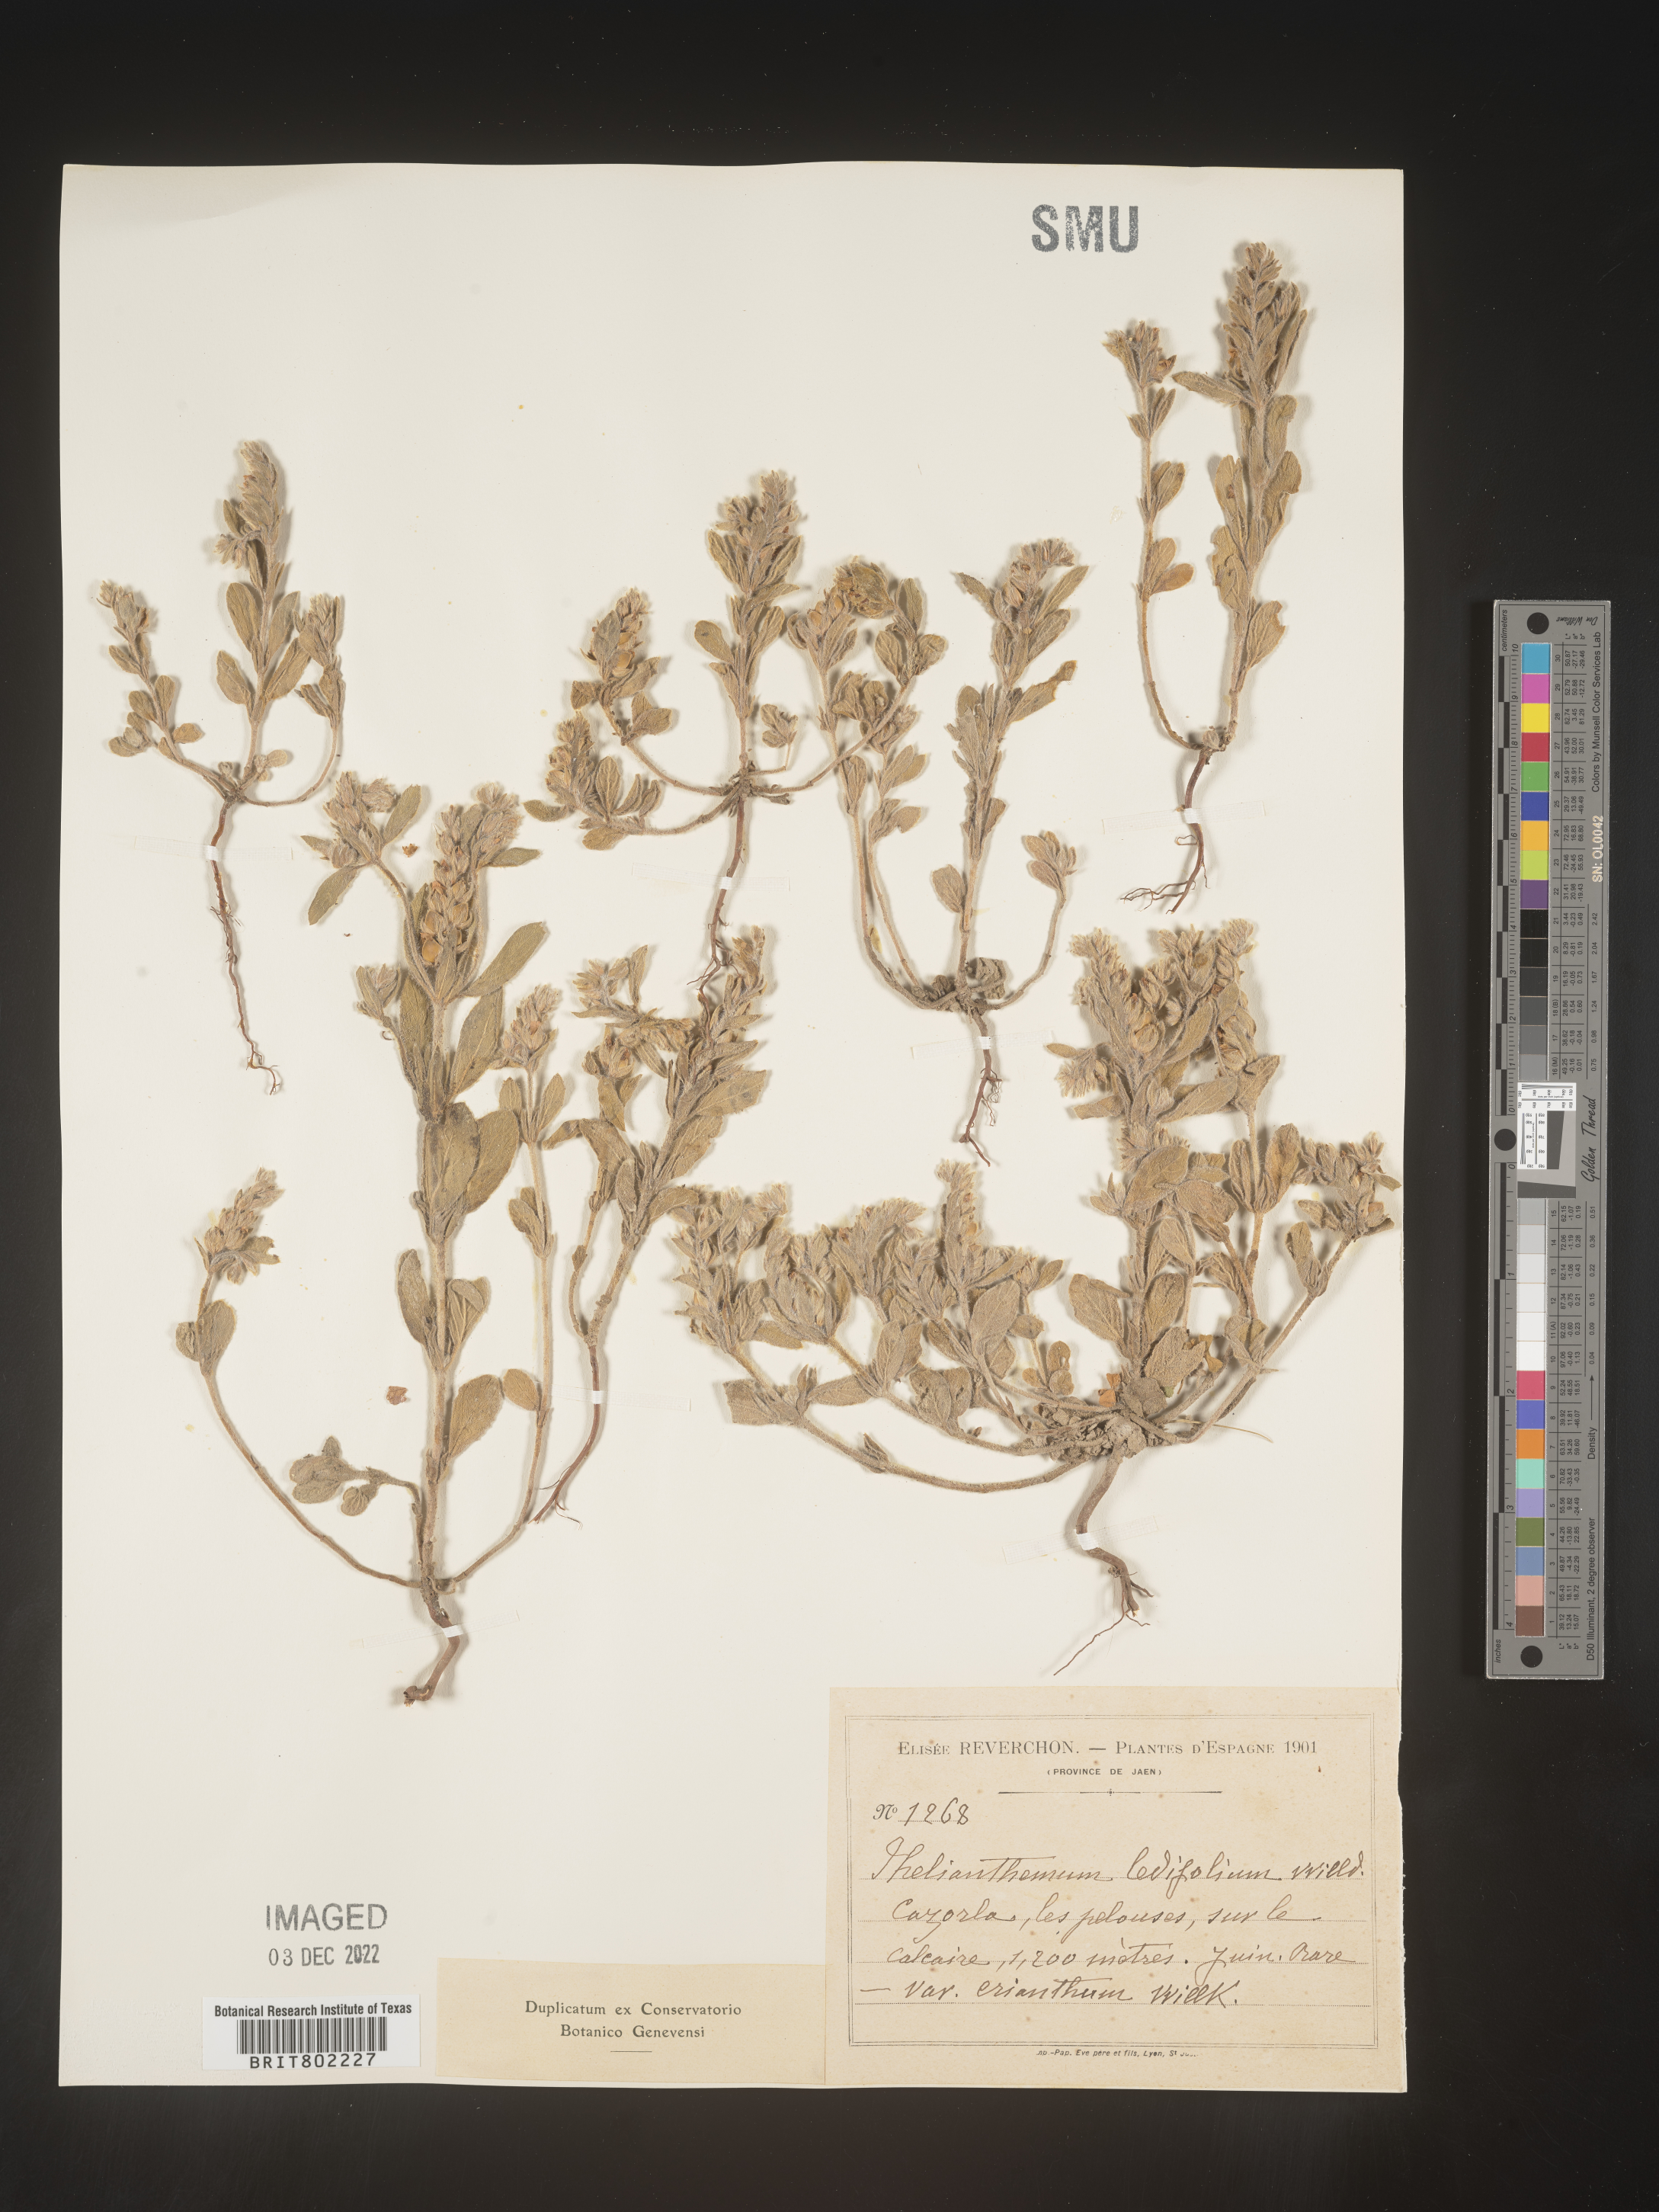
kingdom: Plantae
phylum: Tracheophyta
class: Magnoliopsida
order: Malvales
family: Cistaceae
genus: Helianthemum
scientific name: Helianthemum
